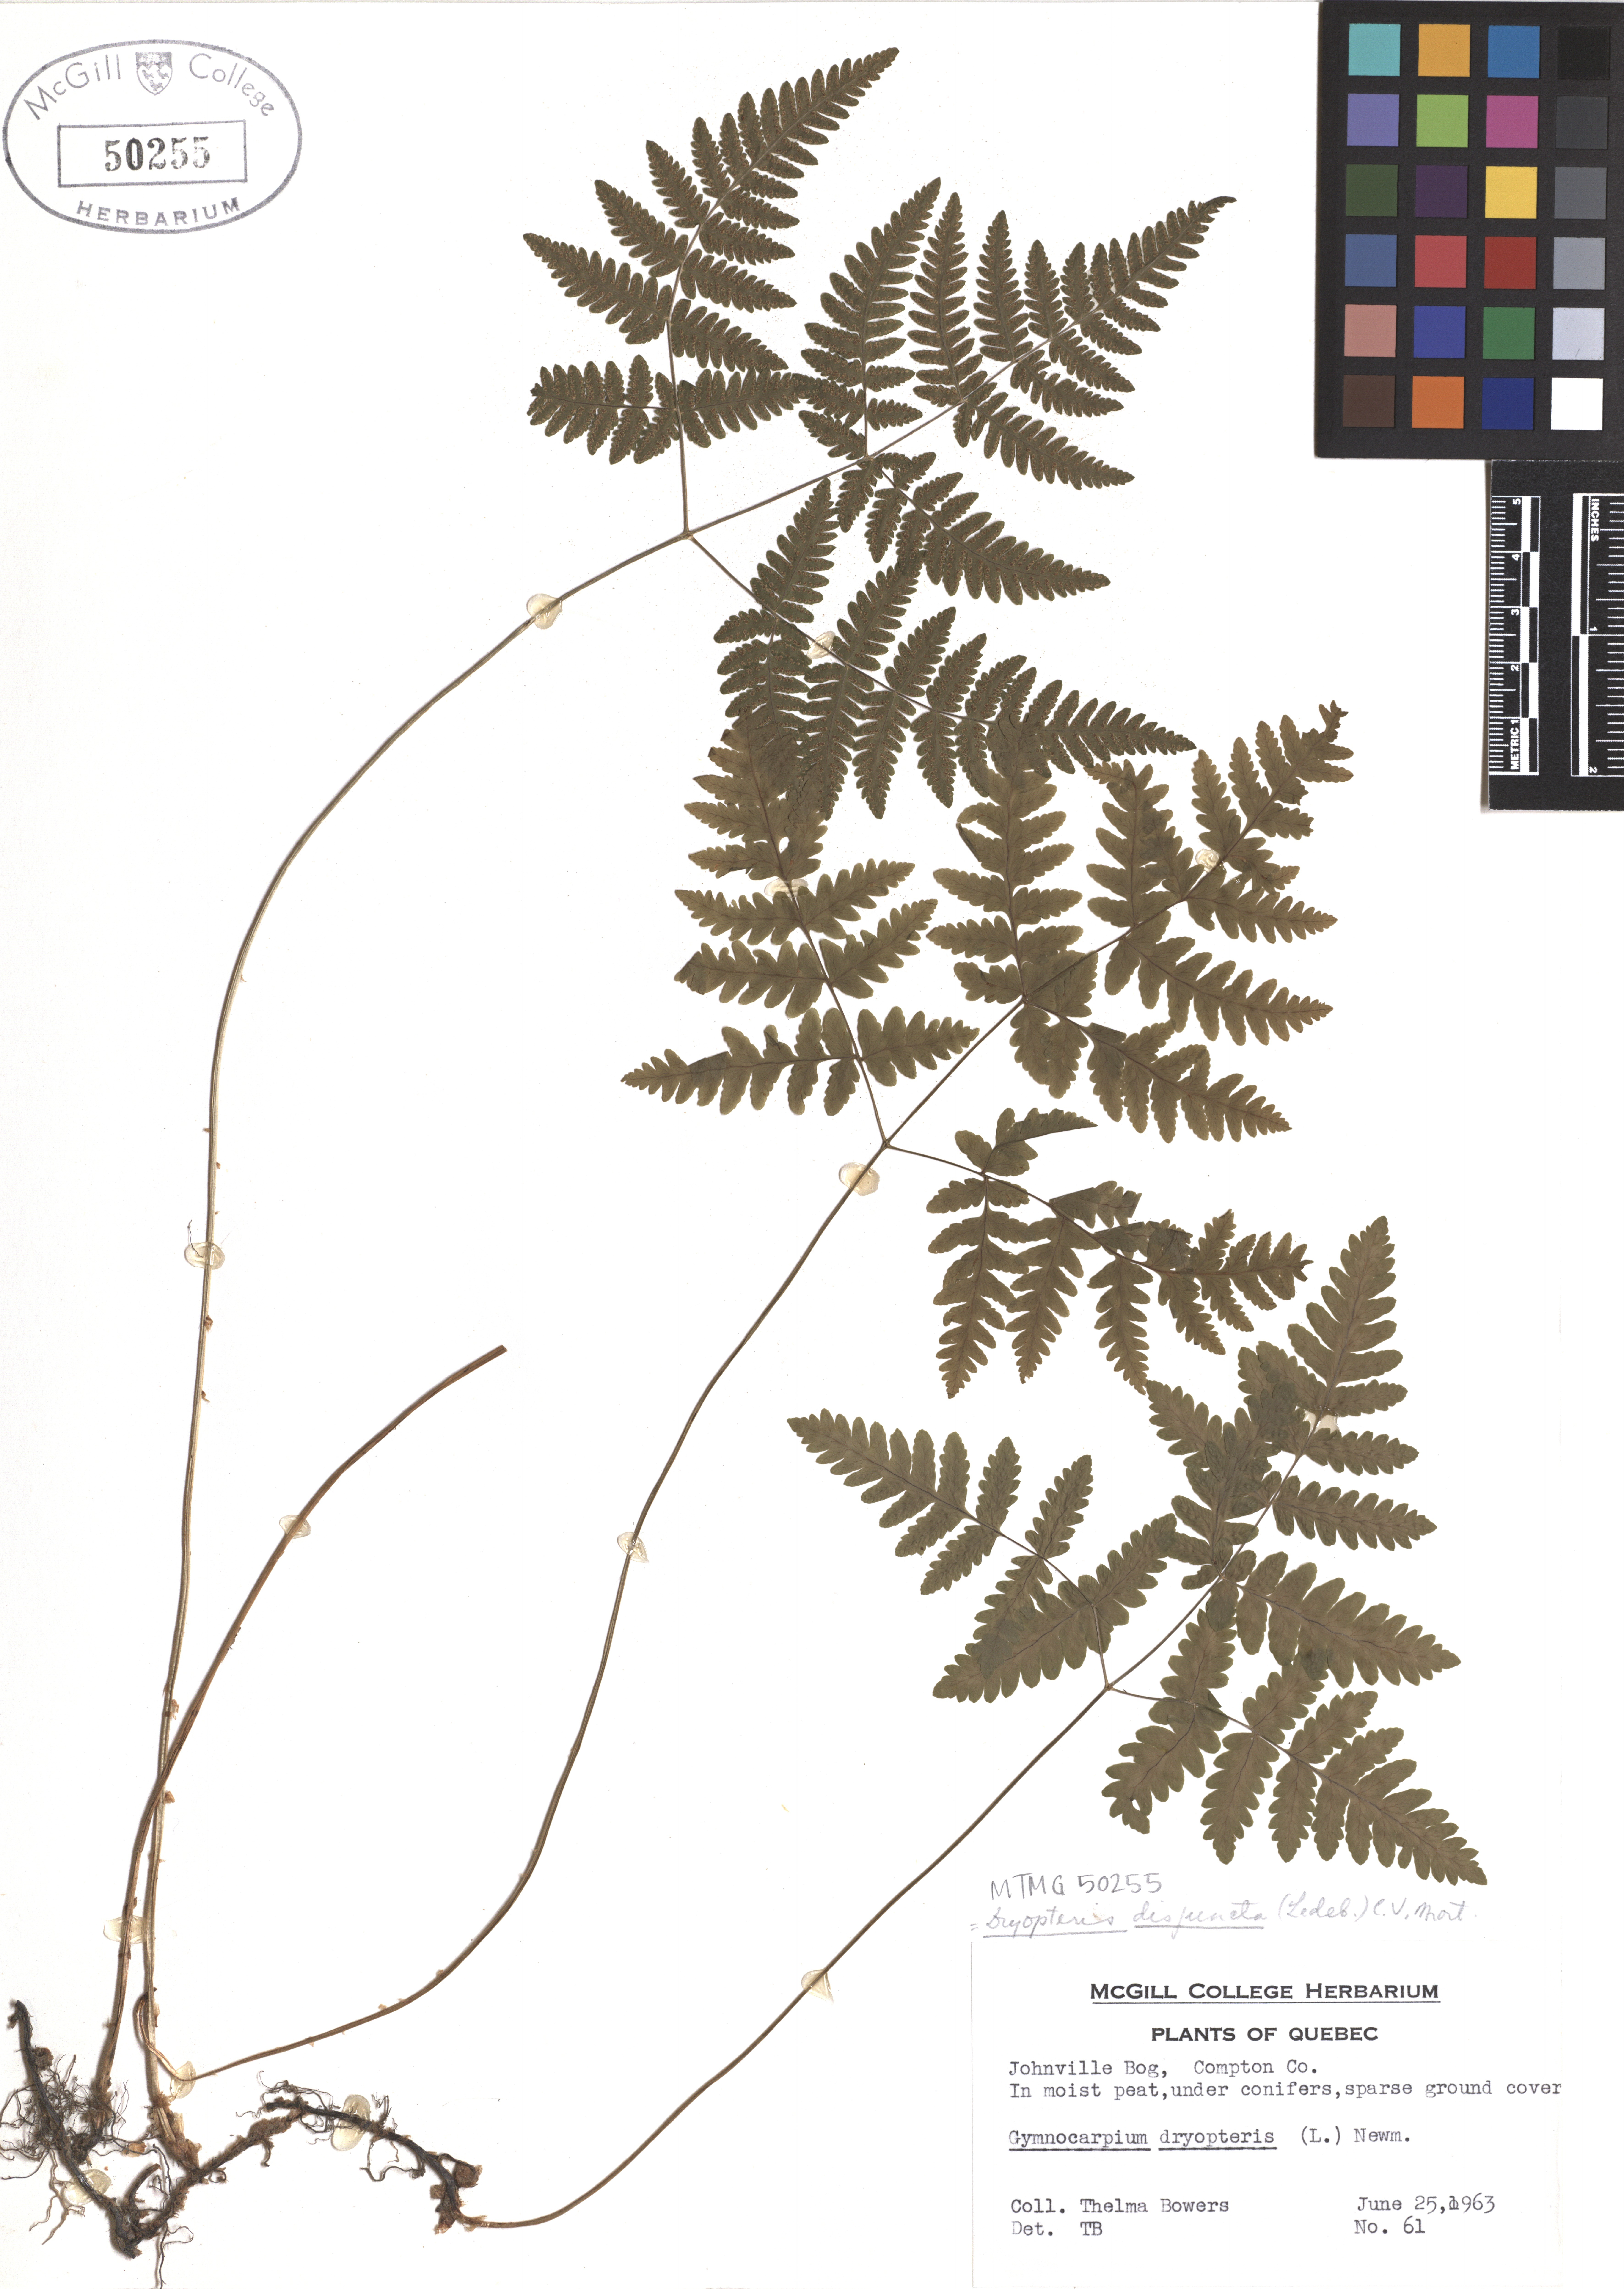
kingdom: Plantae
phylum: Tracheophyta
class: Polypodiopsida
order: Polypodiales
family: Cystopteridaceae
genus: Gymnocarpium
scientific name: Gymnocarpium dryopteris
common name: Oak fern
